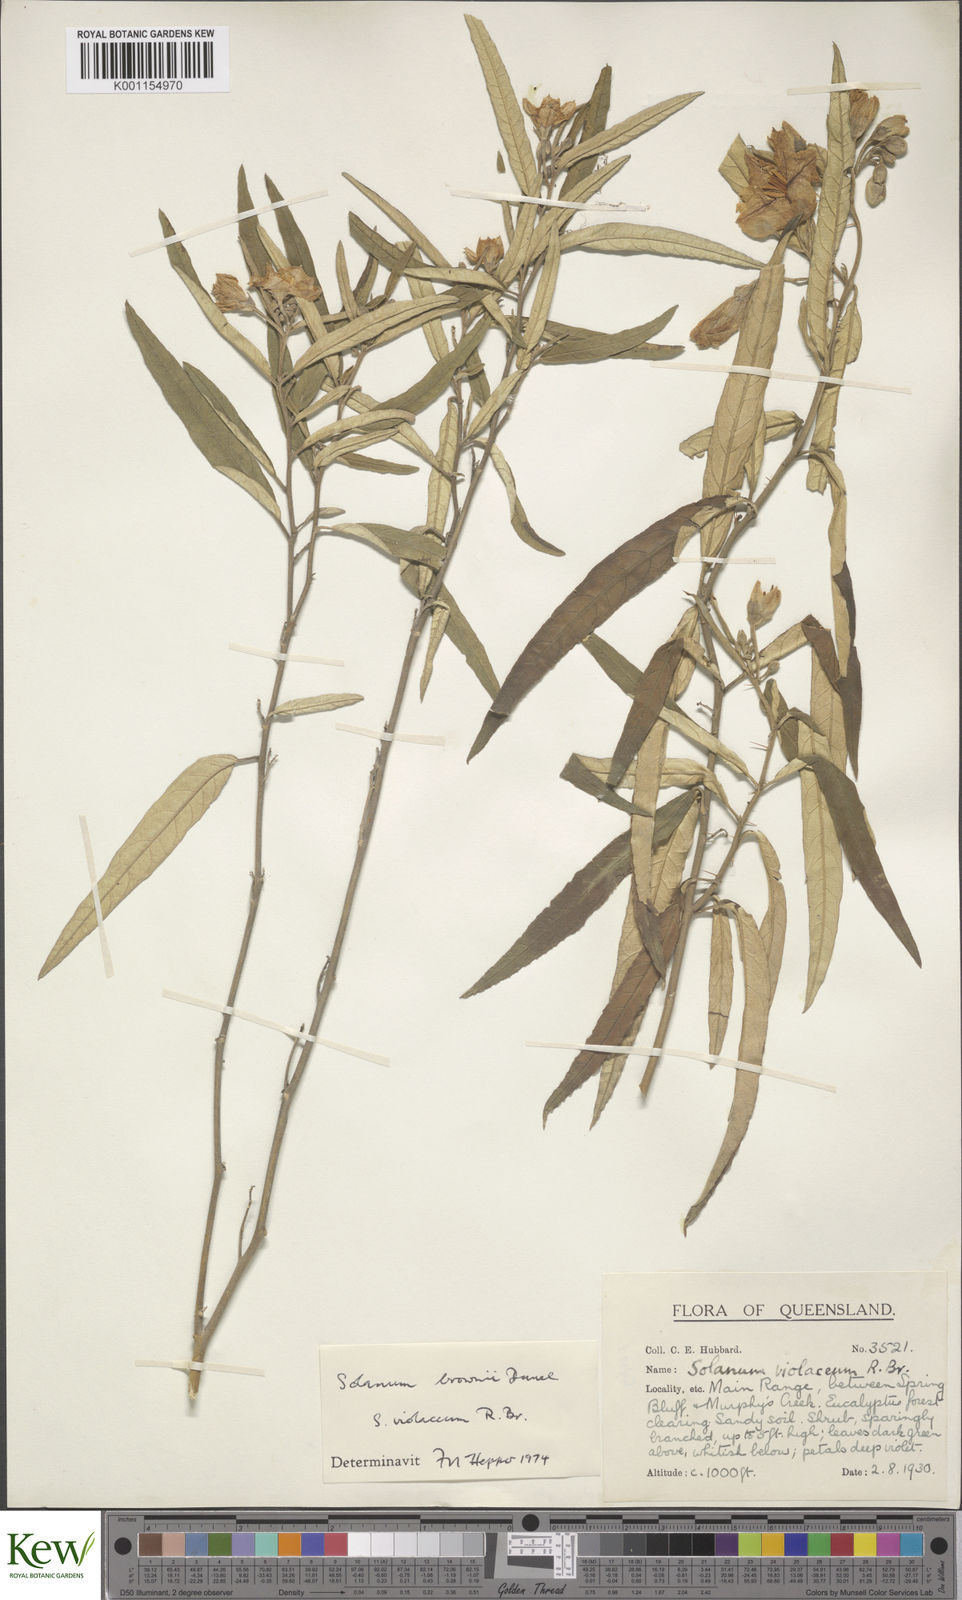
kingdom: Plantae
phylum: Tracheophyta
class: Magnoliopsida
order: Solanales
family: Solanaceae
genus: Solanum
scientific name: Solanum brownii
